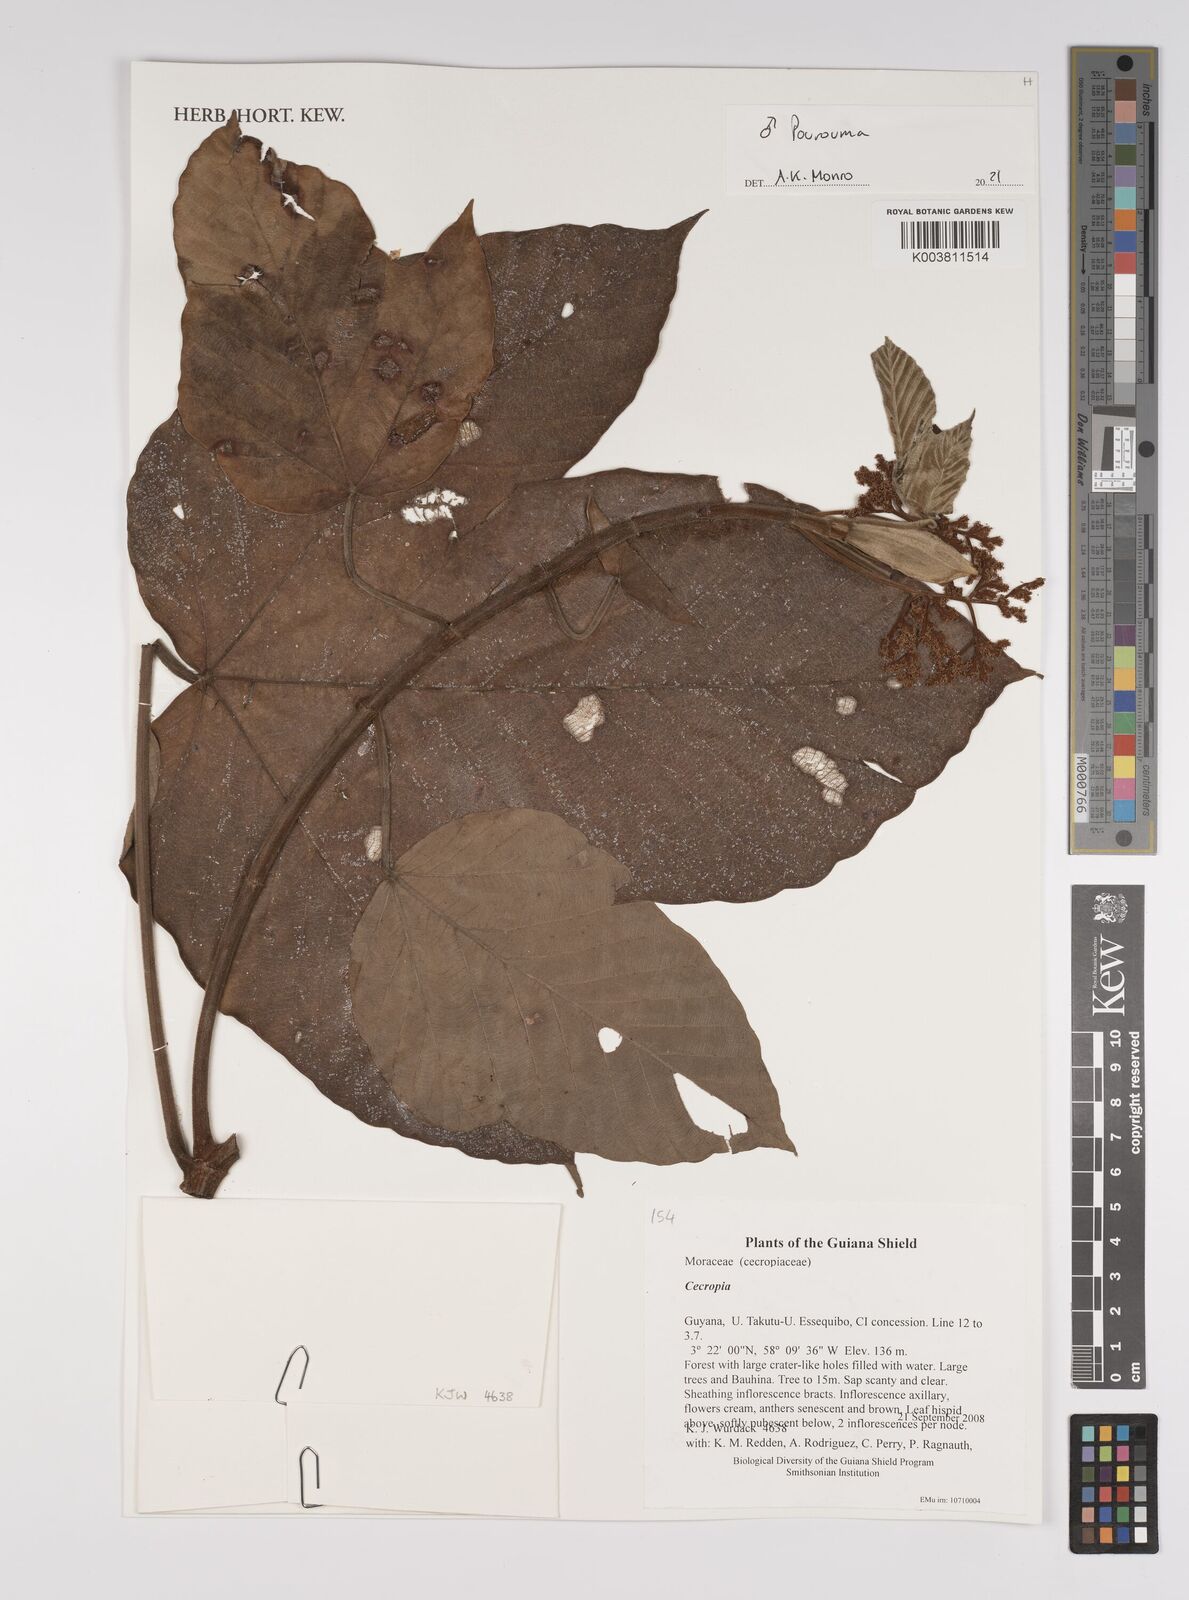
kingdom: Plantae
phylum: Tracheophyta
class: Magnoliopsida
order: Rosales
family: Urticaceae
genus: Pourouma
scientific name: Pourouma
